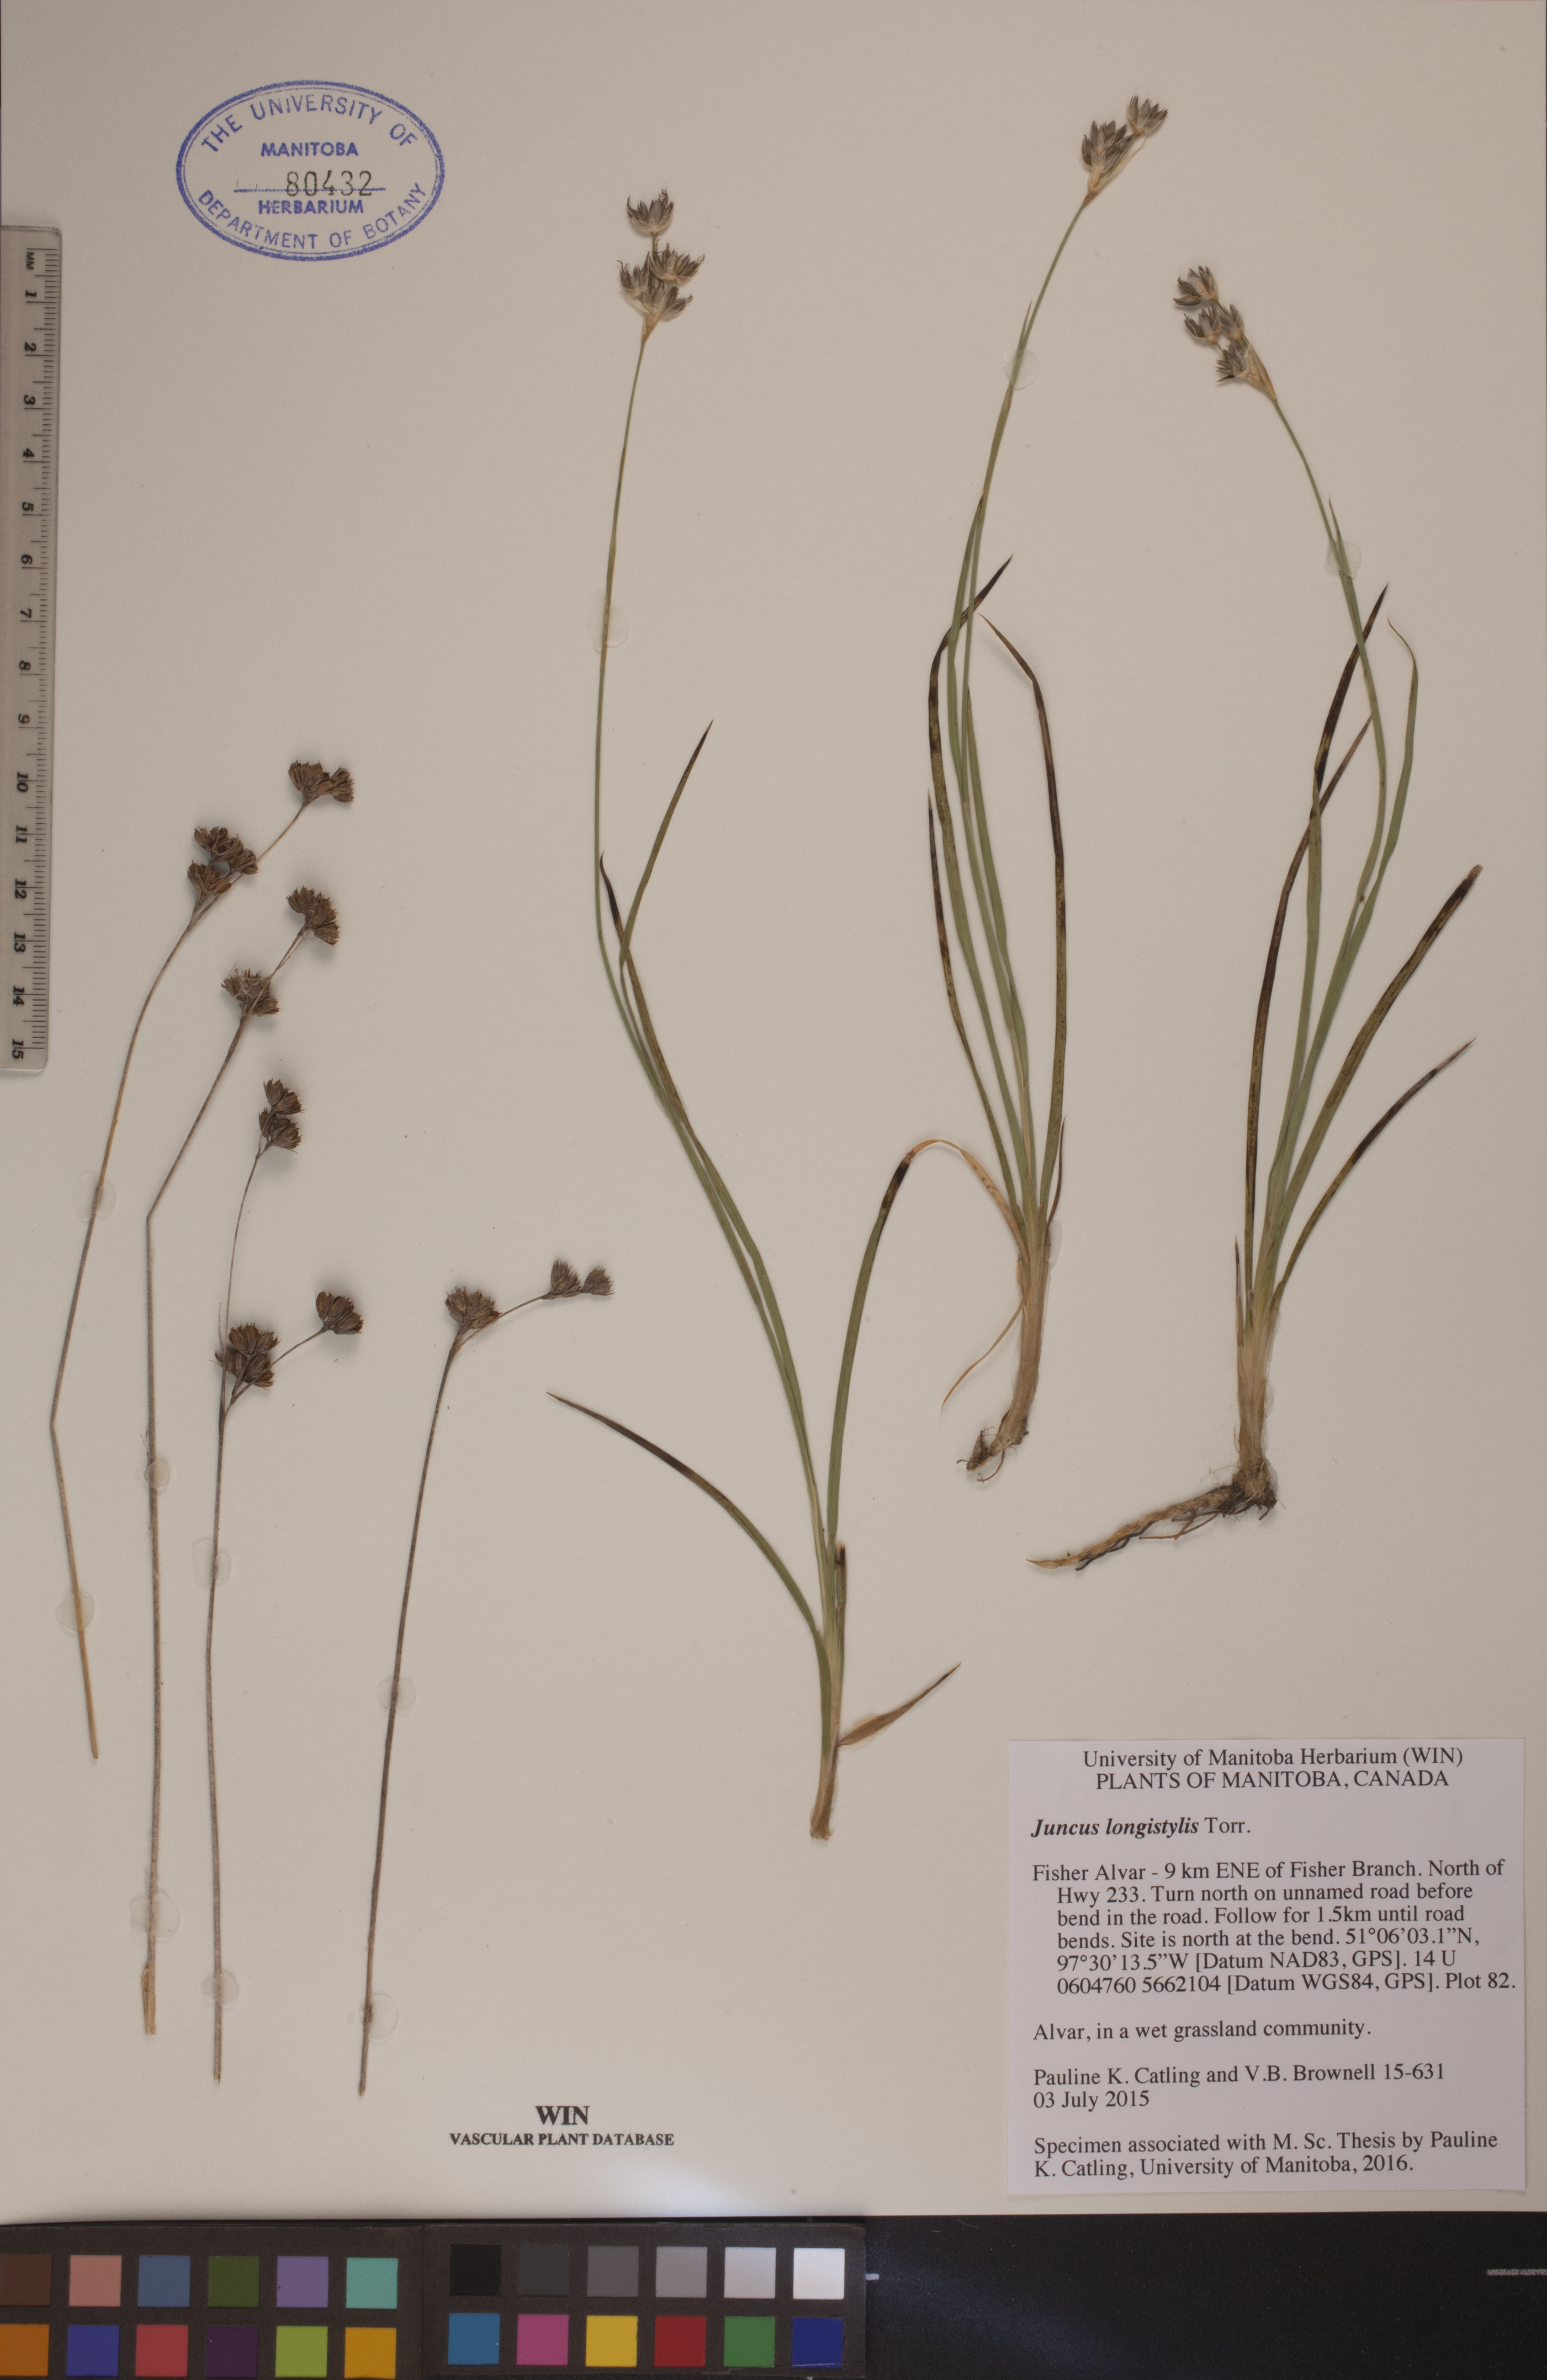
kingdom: Plantae
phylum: Tracheophyta
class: Liliopsida
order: Poales
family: Juncaceae
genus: Juncus
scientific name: Juncus longistylis
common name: Long-style rush
